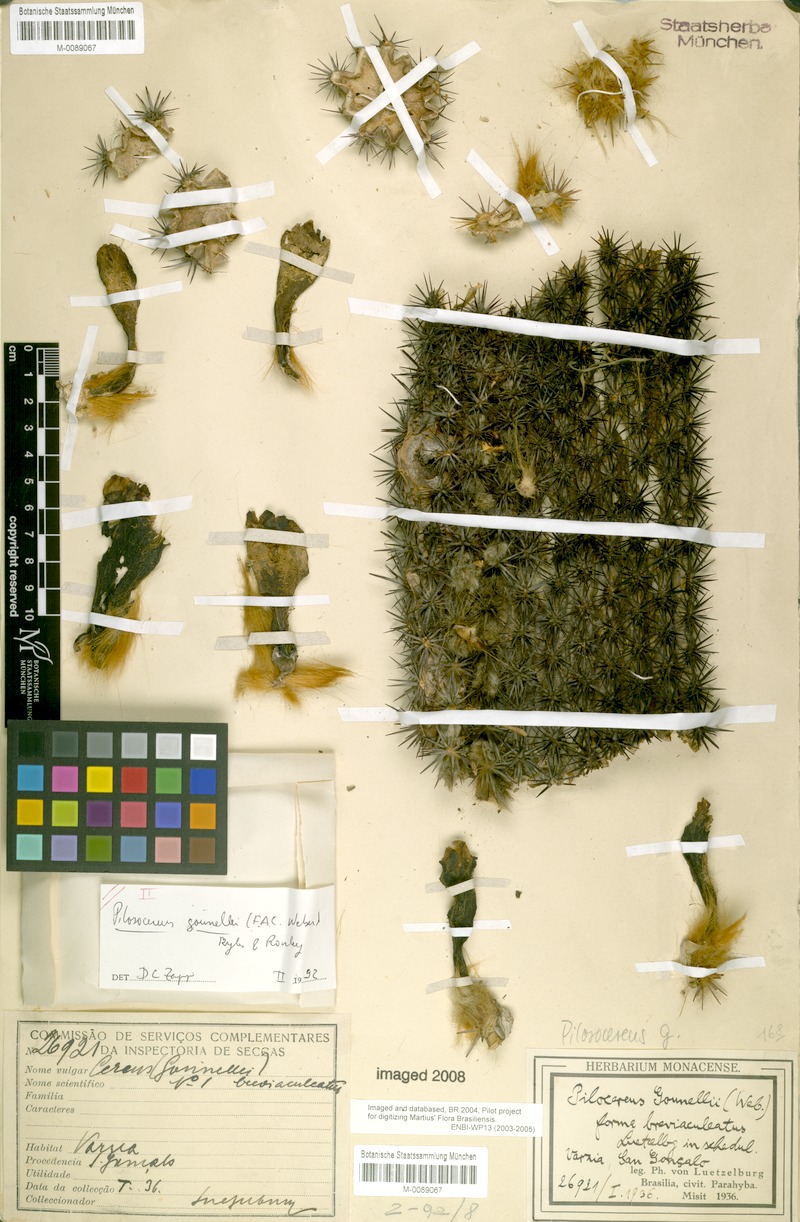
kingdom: Plantae
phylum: Tracheophyta
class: Magnoliopsida
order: Caryophyllales
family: Cactaceae
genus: Xiquexique
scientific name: Xiquexique gounellei
